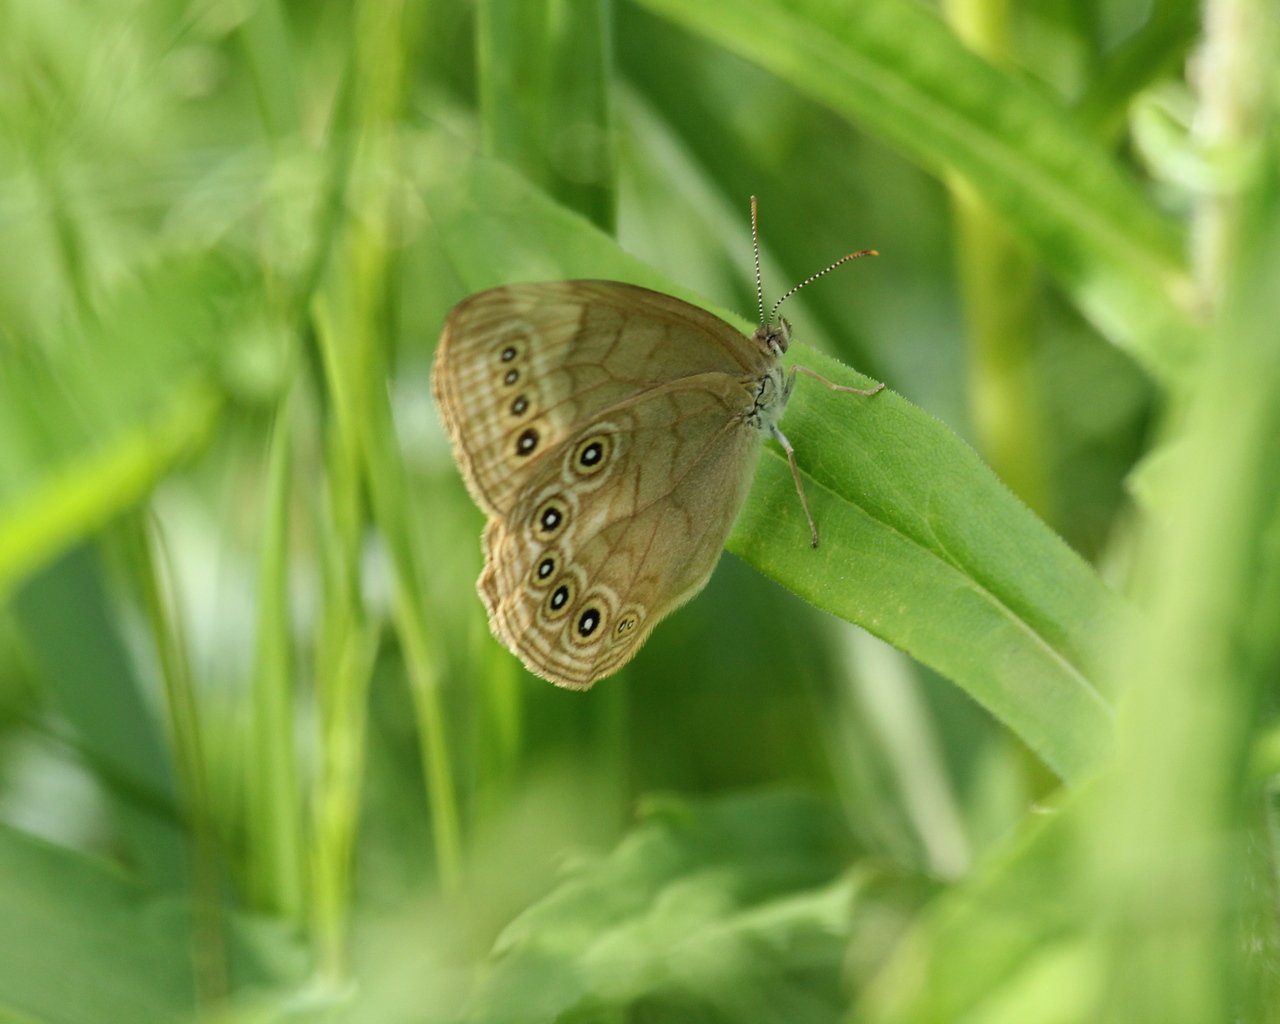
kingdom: Animalia
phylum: Arthropoda
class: Insecta
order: Lepidoptera
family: Nymphalidae
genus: Lethe
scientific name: Lethe
